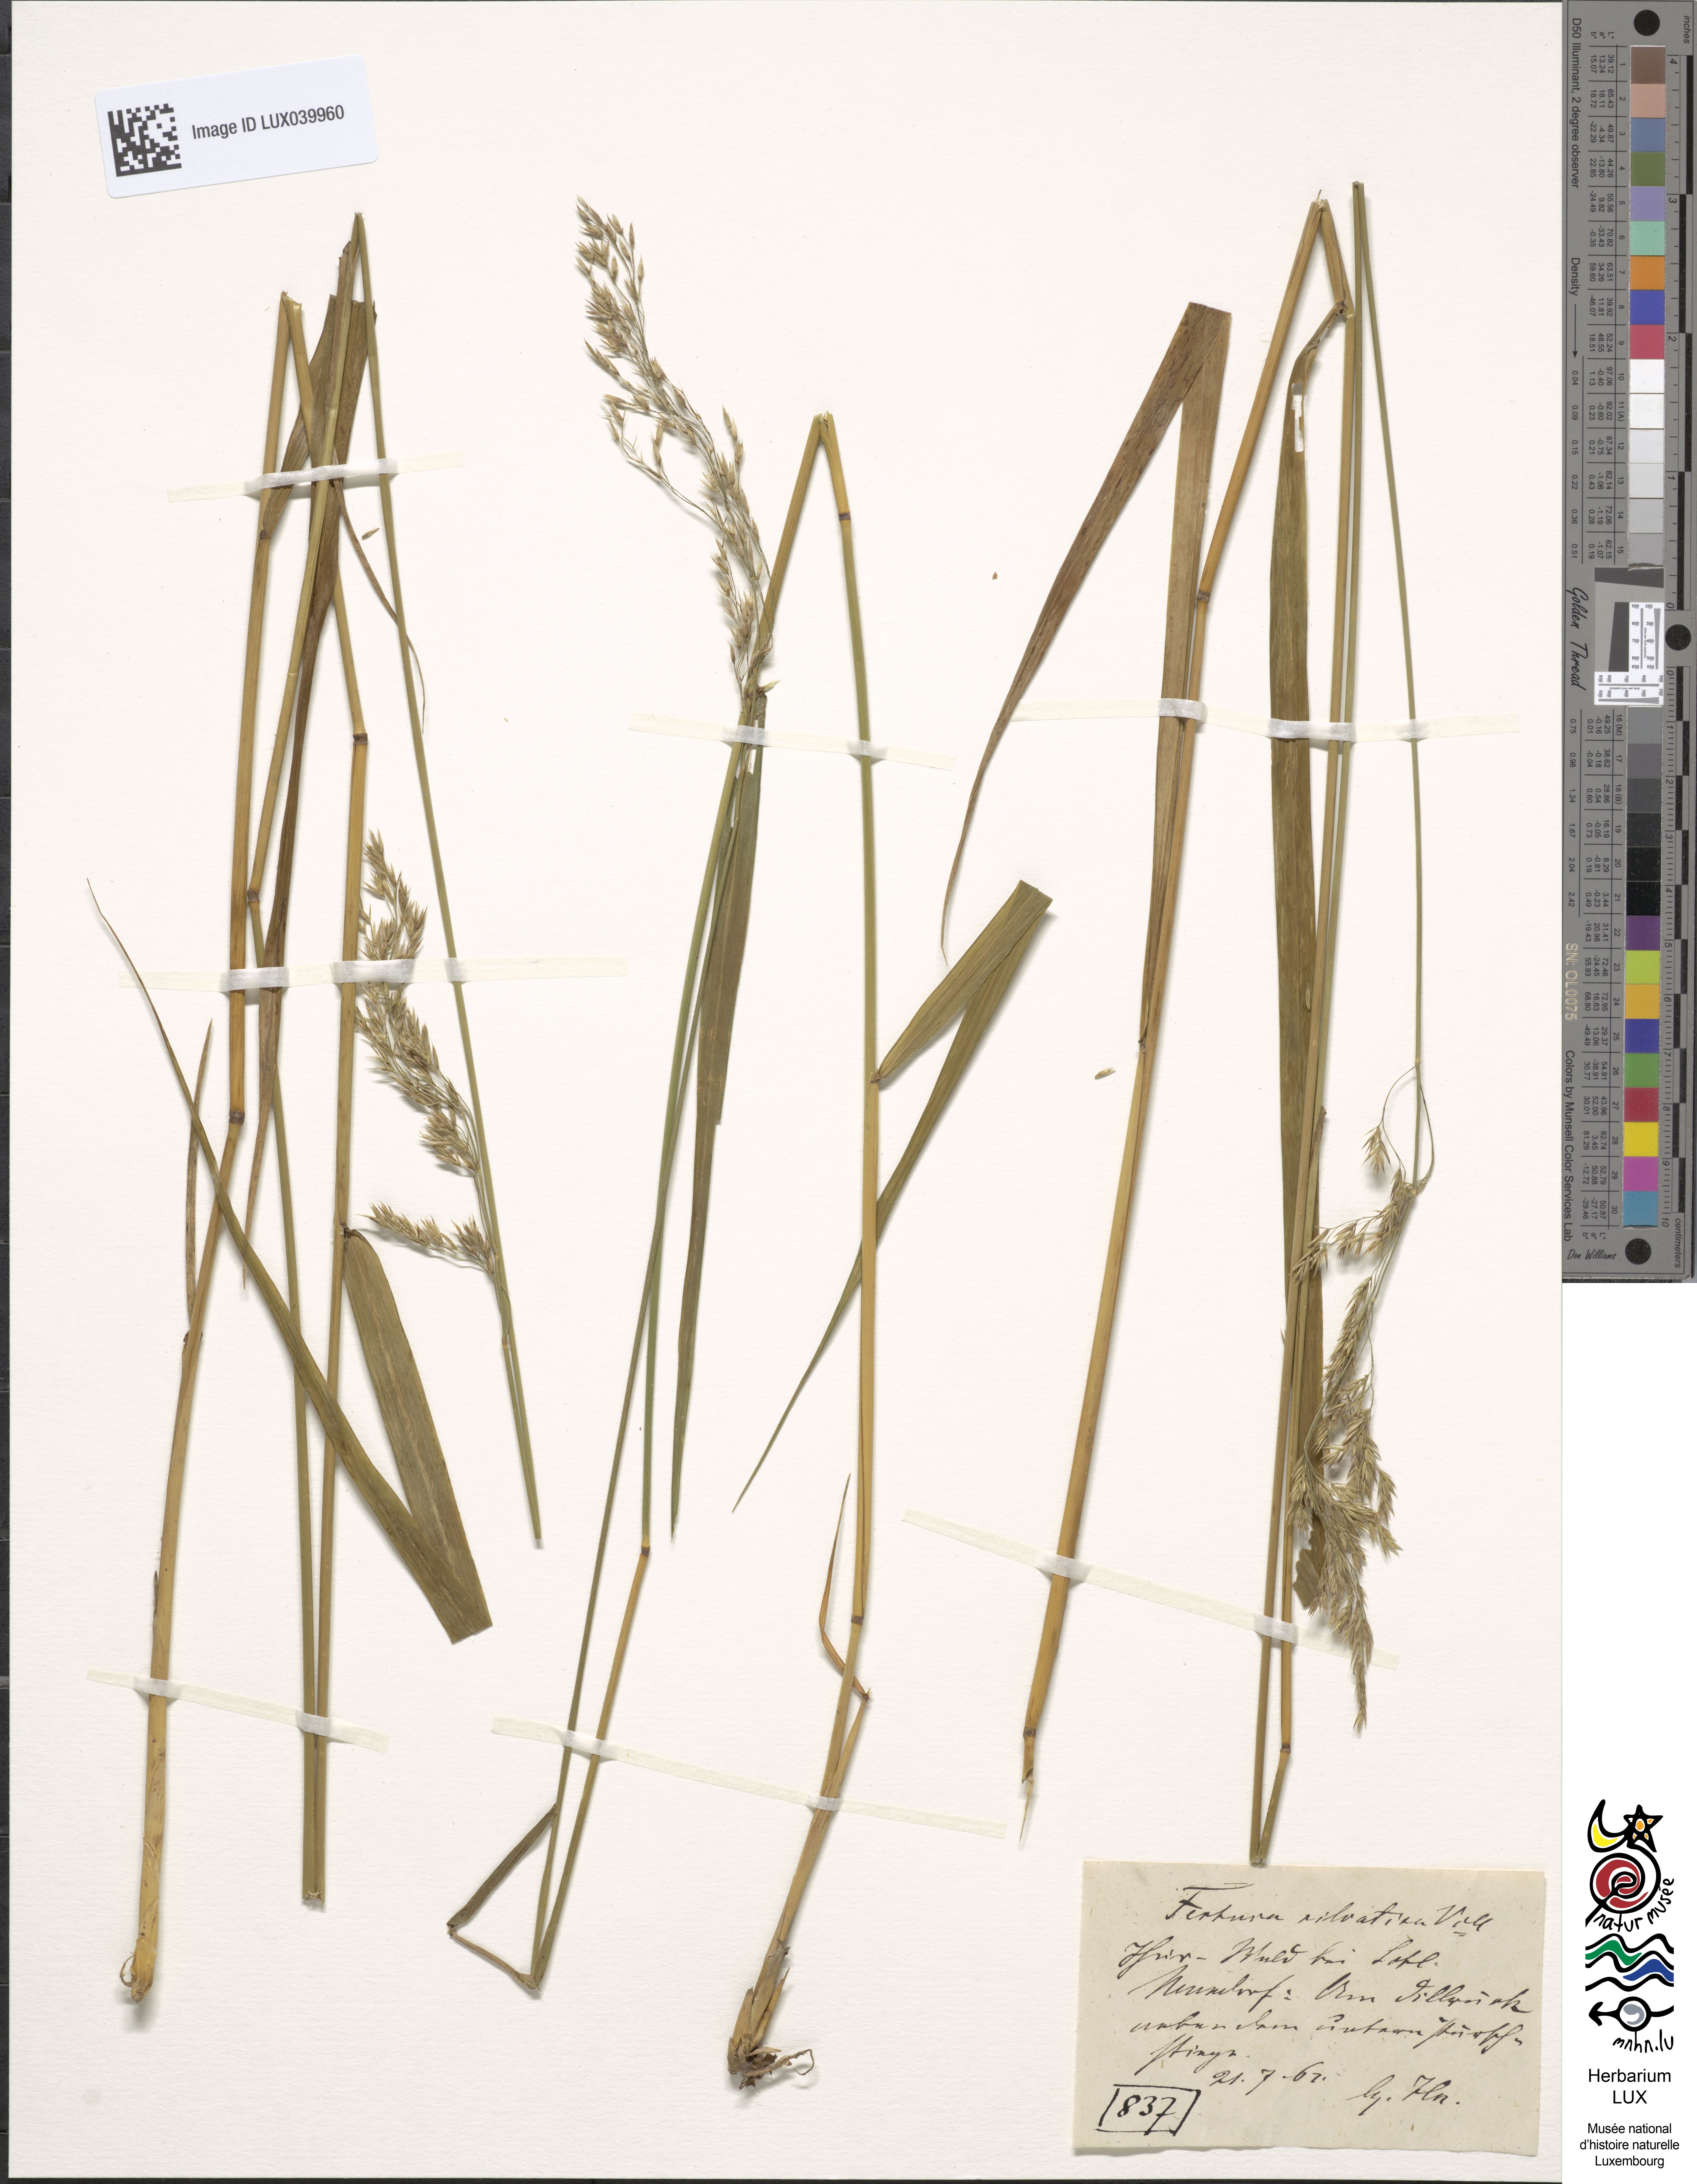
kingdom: Plantae
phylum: Tracheophyta
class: Liliopsida
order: Poales
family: Poaceae
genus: Festuca
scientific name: Festuca altissima
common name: Wood fescue
